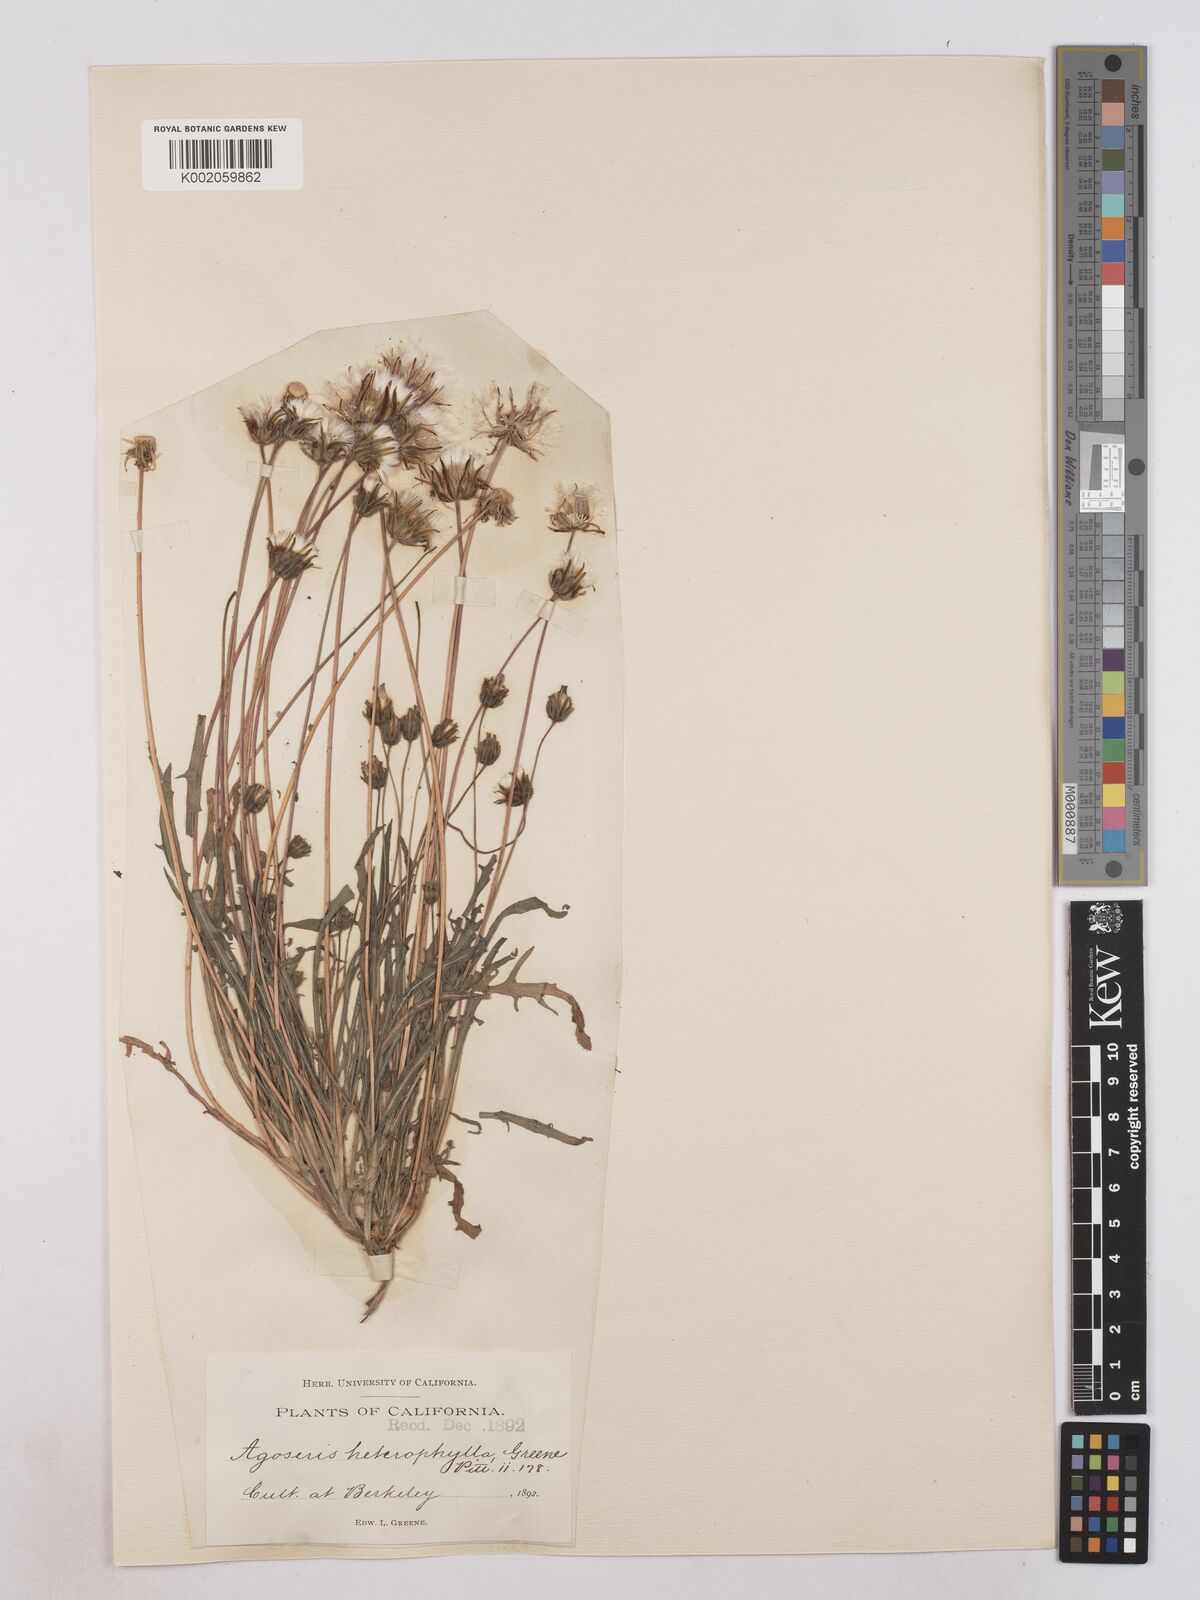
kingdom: Plantae
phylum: Tracheophyta
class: Magnoliopsida
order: Asterales
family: Asteraceae
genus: Agoseris
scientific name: Agoseris heterophylla
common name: Annual agoseris
